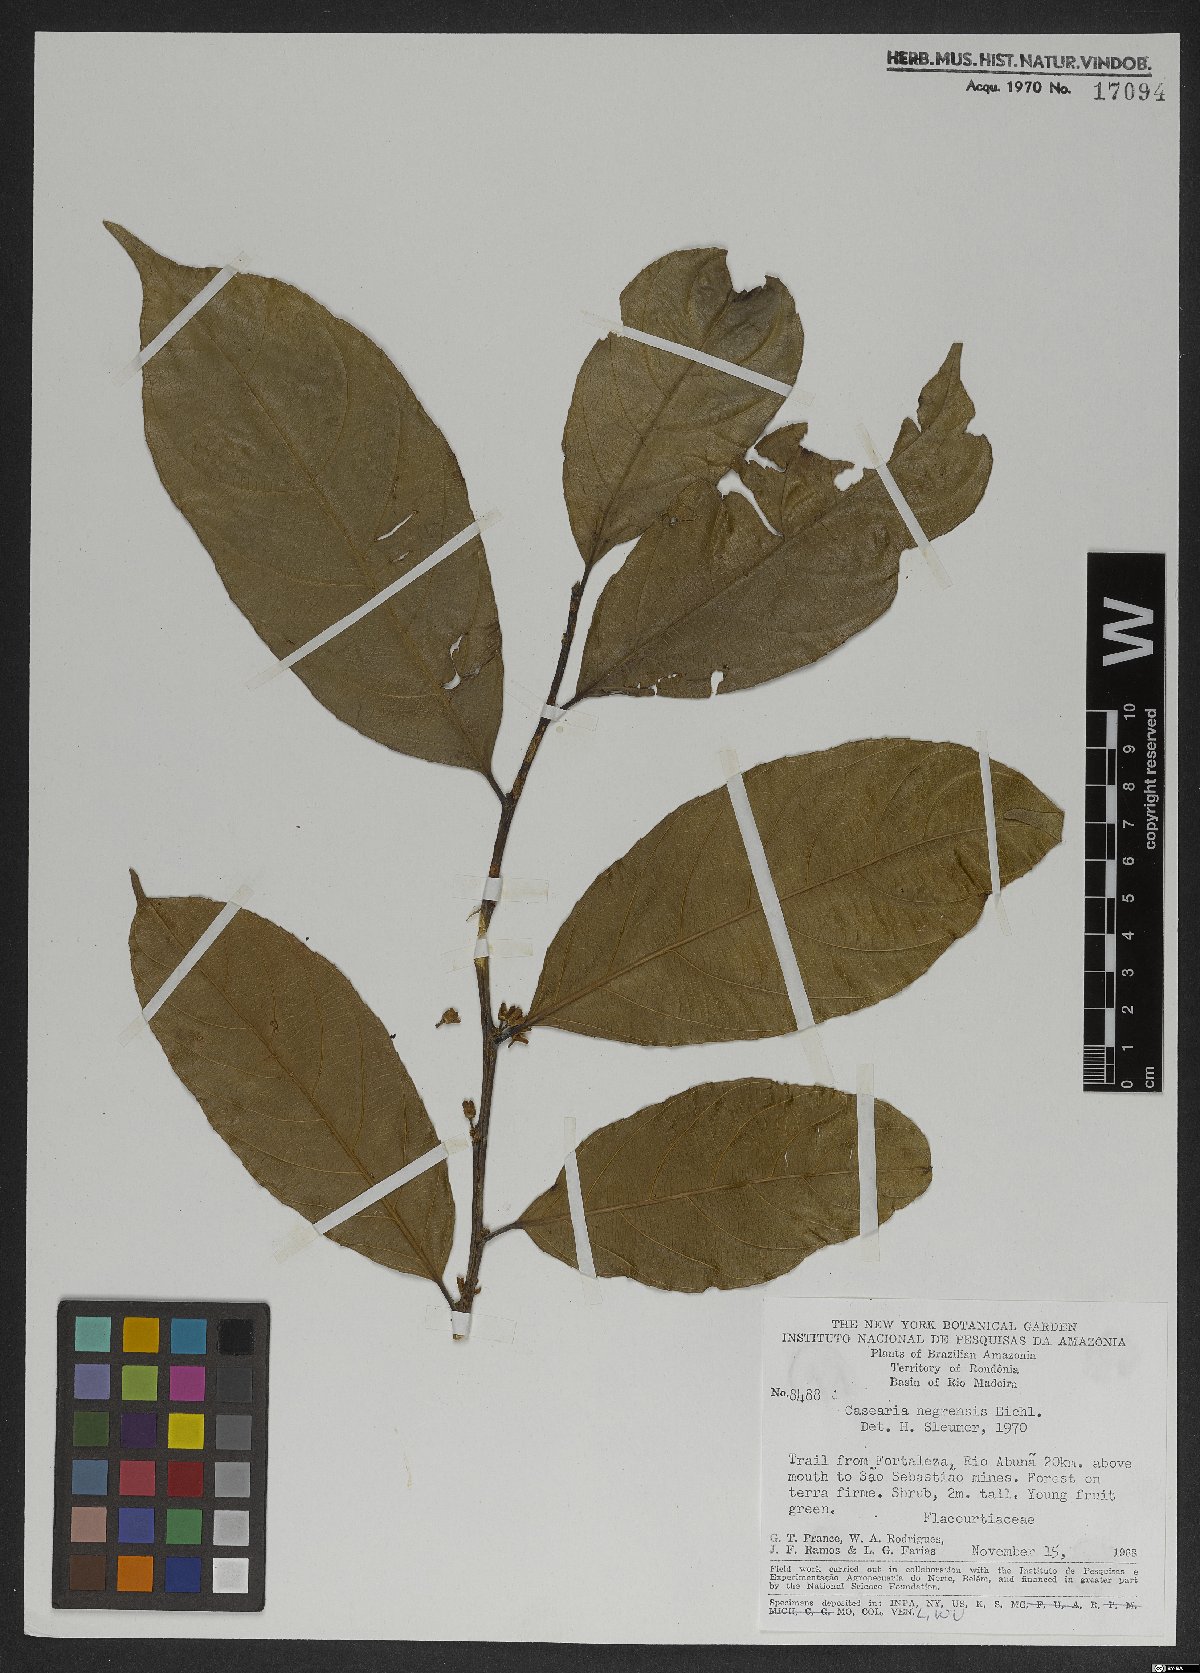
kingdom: Plantae
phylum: Tracheophyta
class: Magnoliopsida
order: Malpighiales
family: Salicaceae
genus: Casearia
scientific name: Casearia nigrescens
